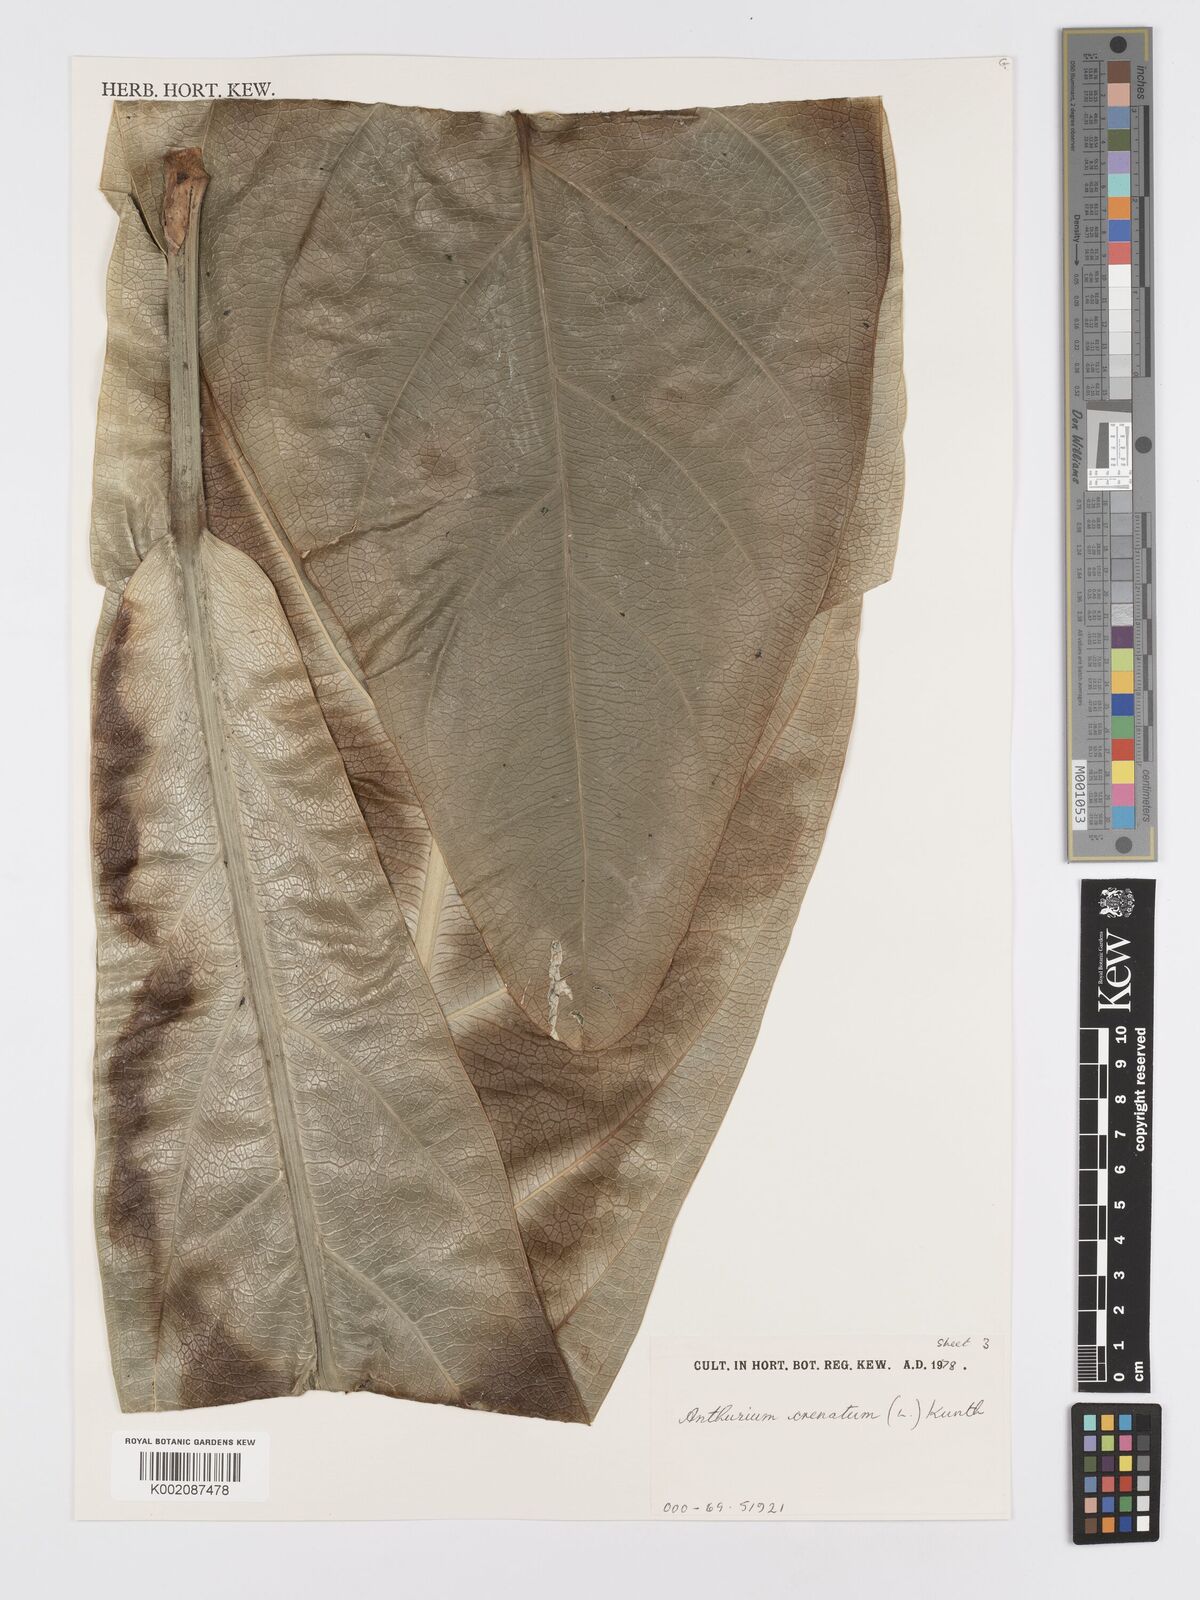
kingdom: Plantae
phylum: Tracheophyta
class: Liliopsida
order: Alismatales
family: Araceae
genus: Anthurium
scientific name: Anthurium crenatum
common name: Scalloped laceleaf
